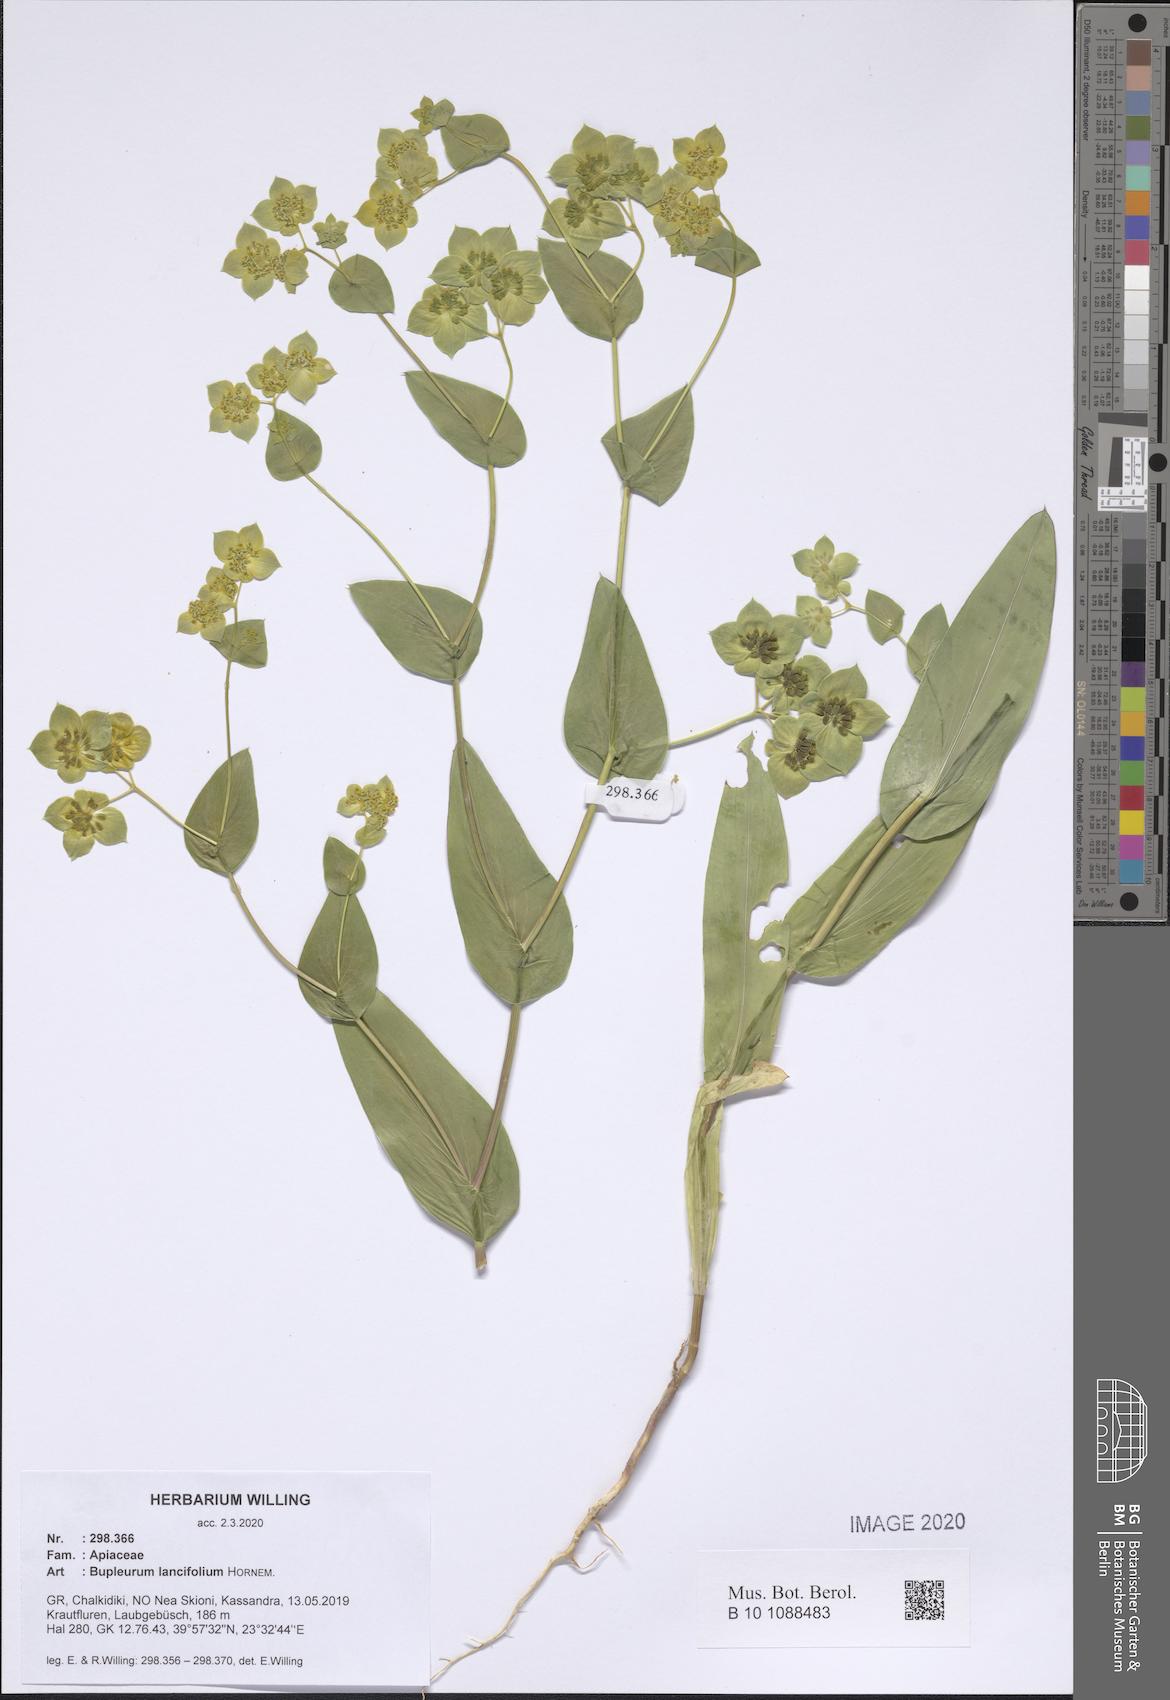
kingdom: Plantae
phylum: Tracheophyta
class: Magnoliopsida
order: Apiales
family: Apiaceae
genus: Bupleurum
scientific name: Bupleurum lancifolium
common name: False thorow-wax
